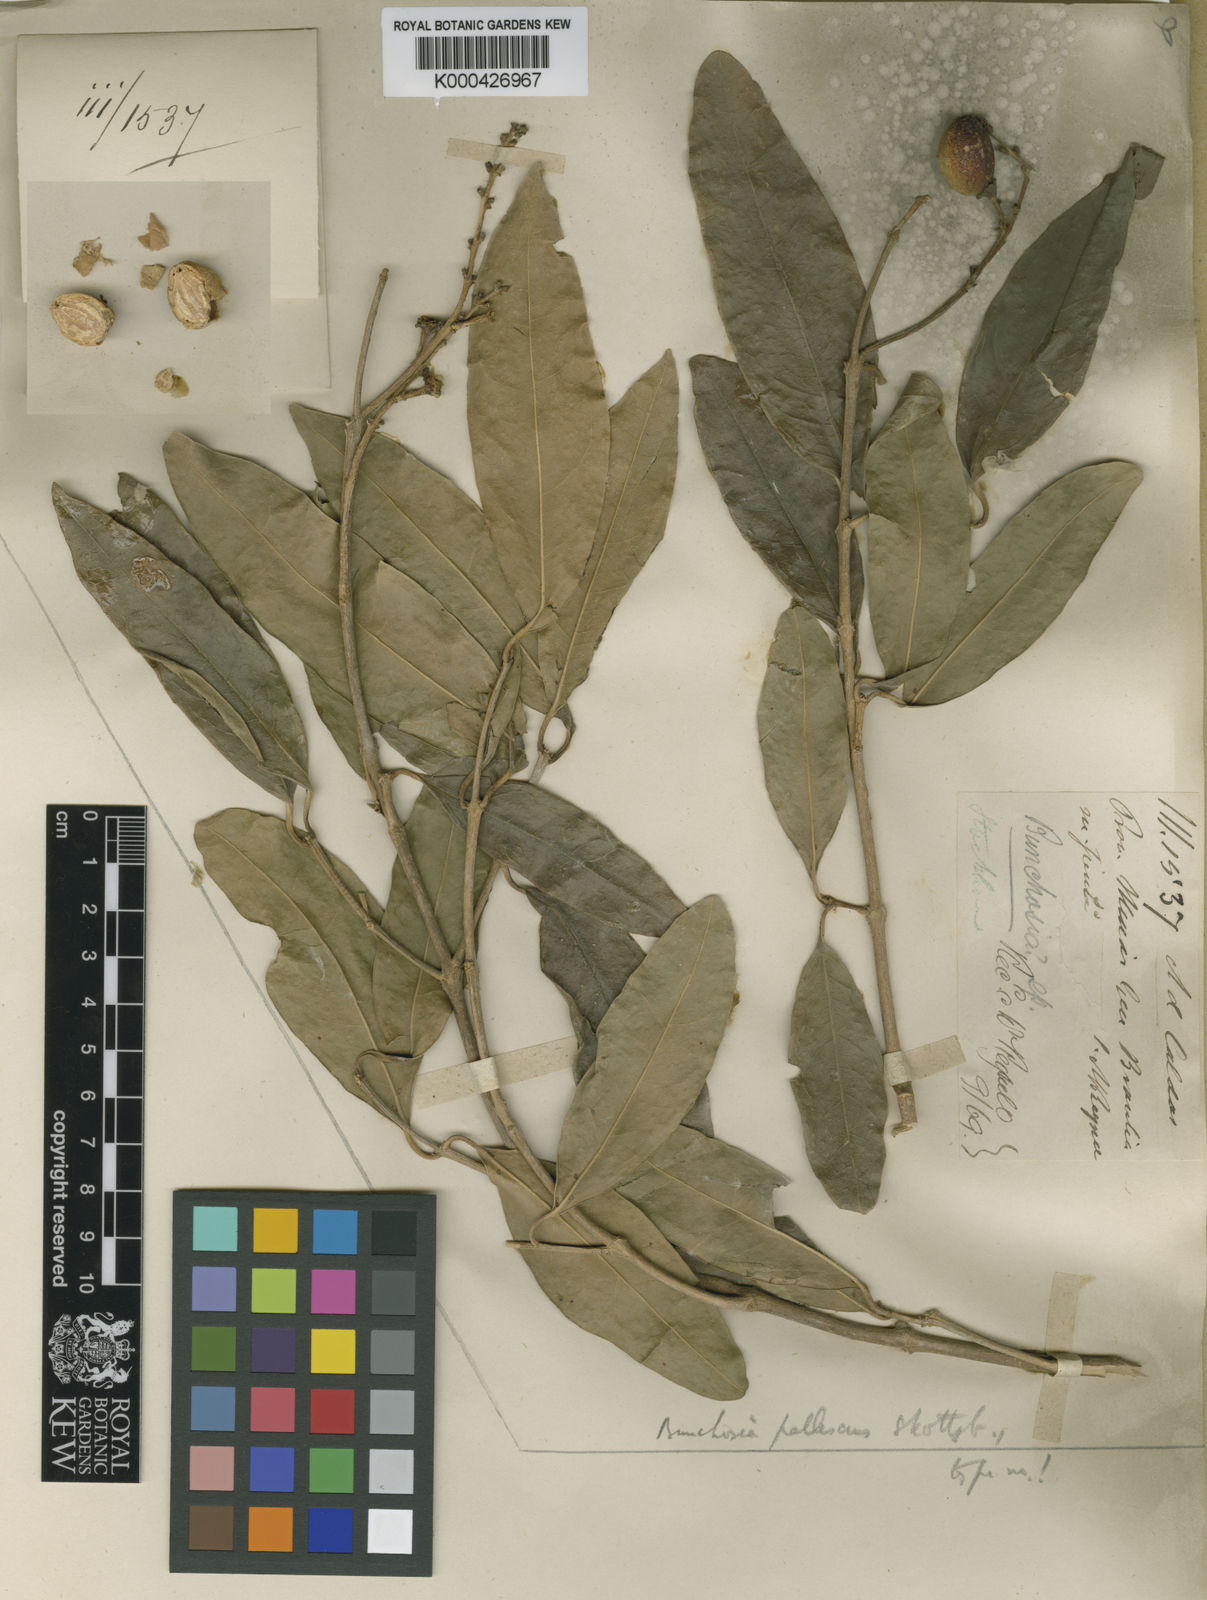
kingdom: Plantae
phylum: Tracheophyta
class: Magnoliopsida
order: Malpighiales
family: Malpighiaceae
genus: Bunchosia
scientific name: Bunchosia pallescens
